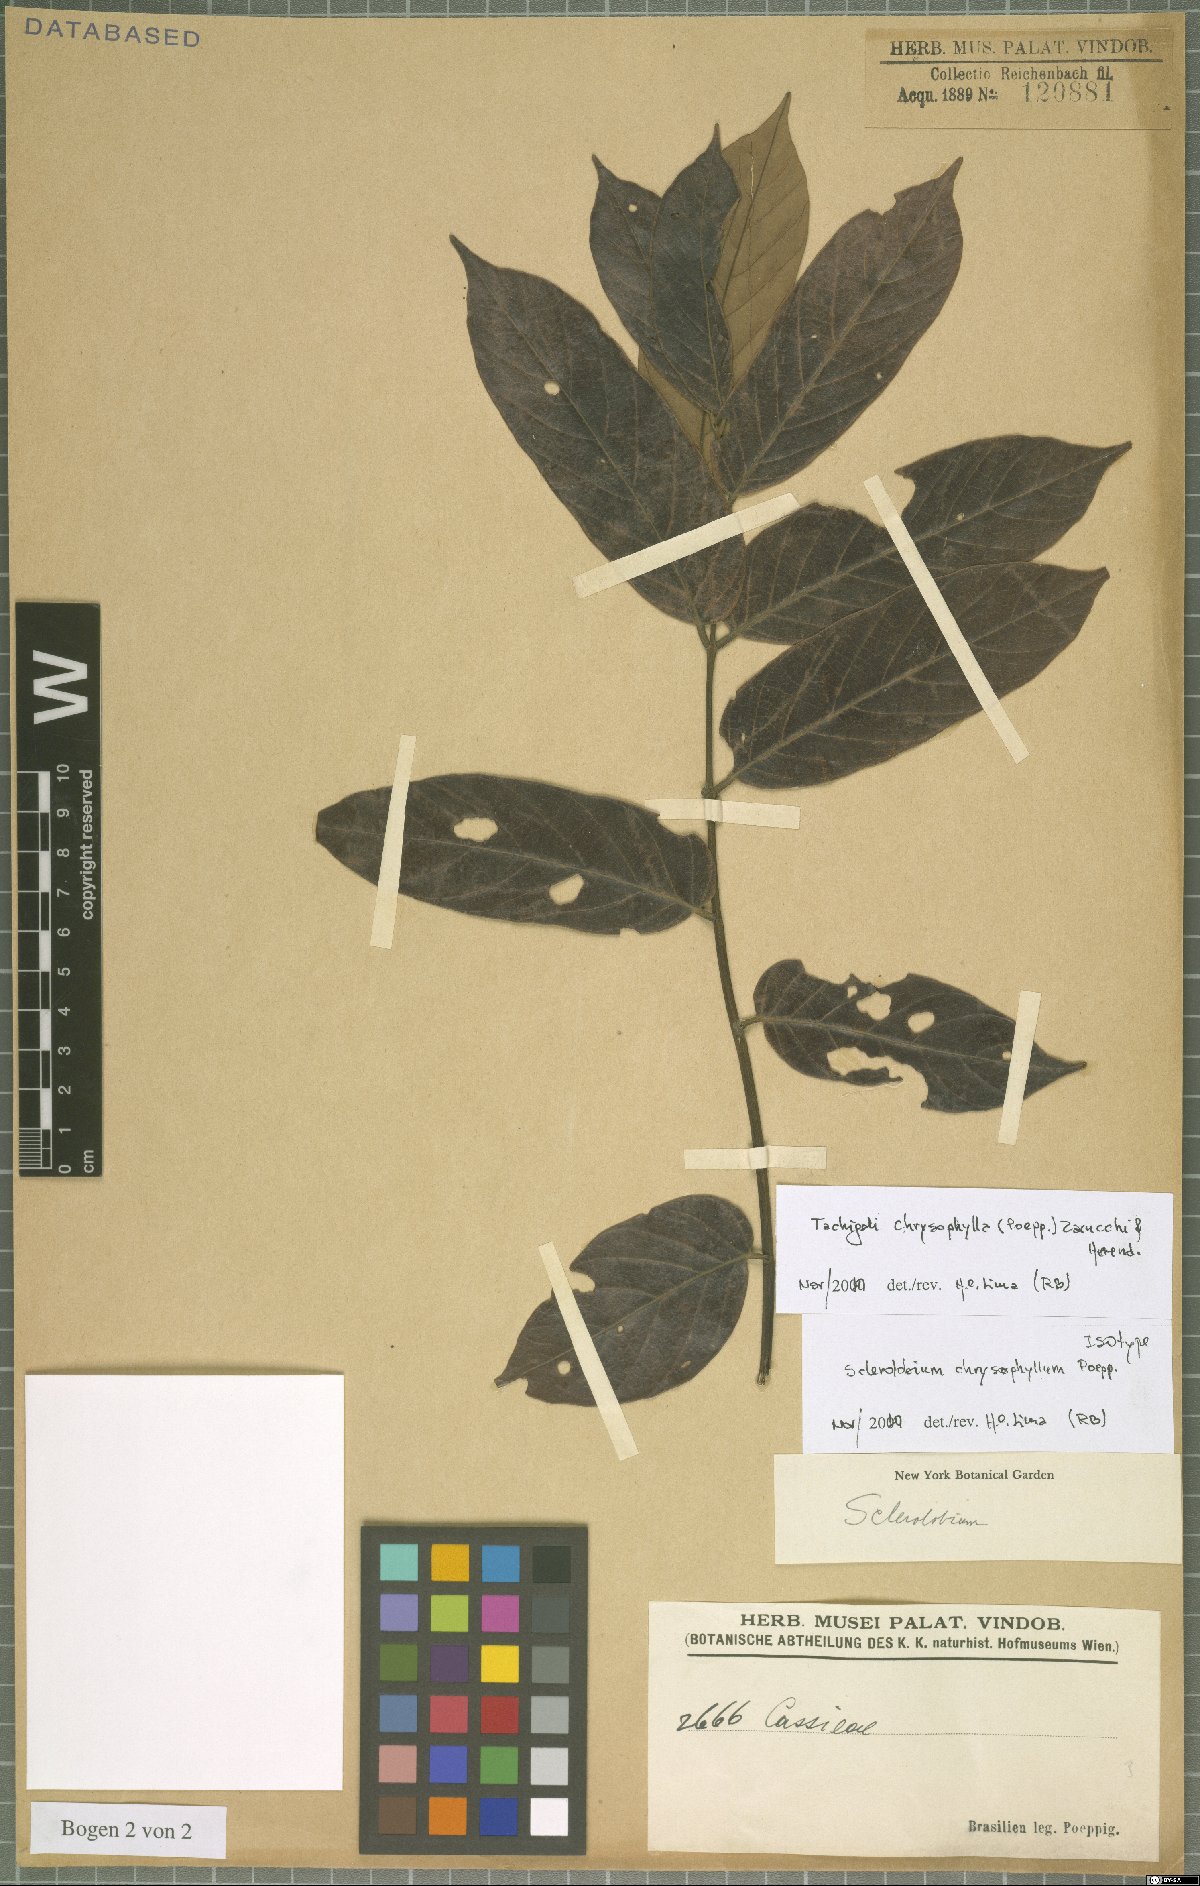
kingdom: Plantae
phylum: Tracheophyta
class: Magnoliopsida
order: Fabales
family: Fabaceae
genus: Tachigali
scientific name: Tachigali chrysophylla
